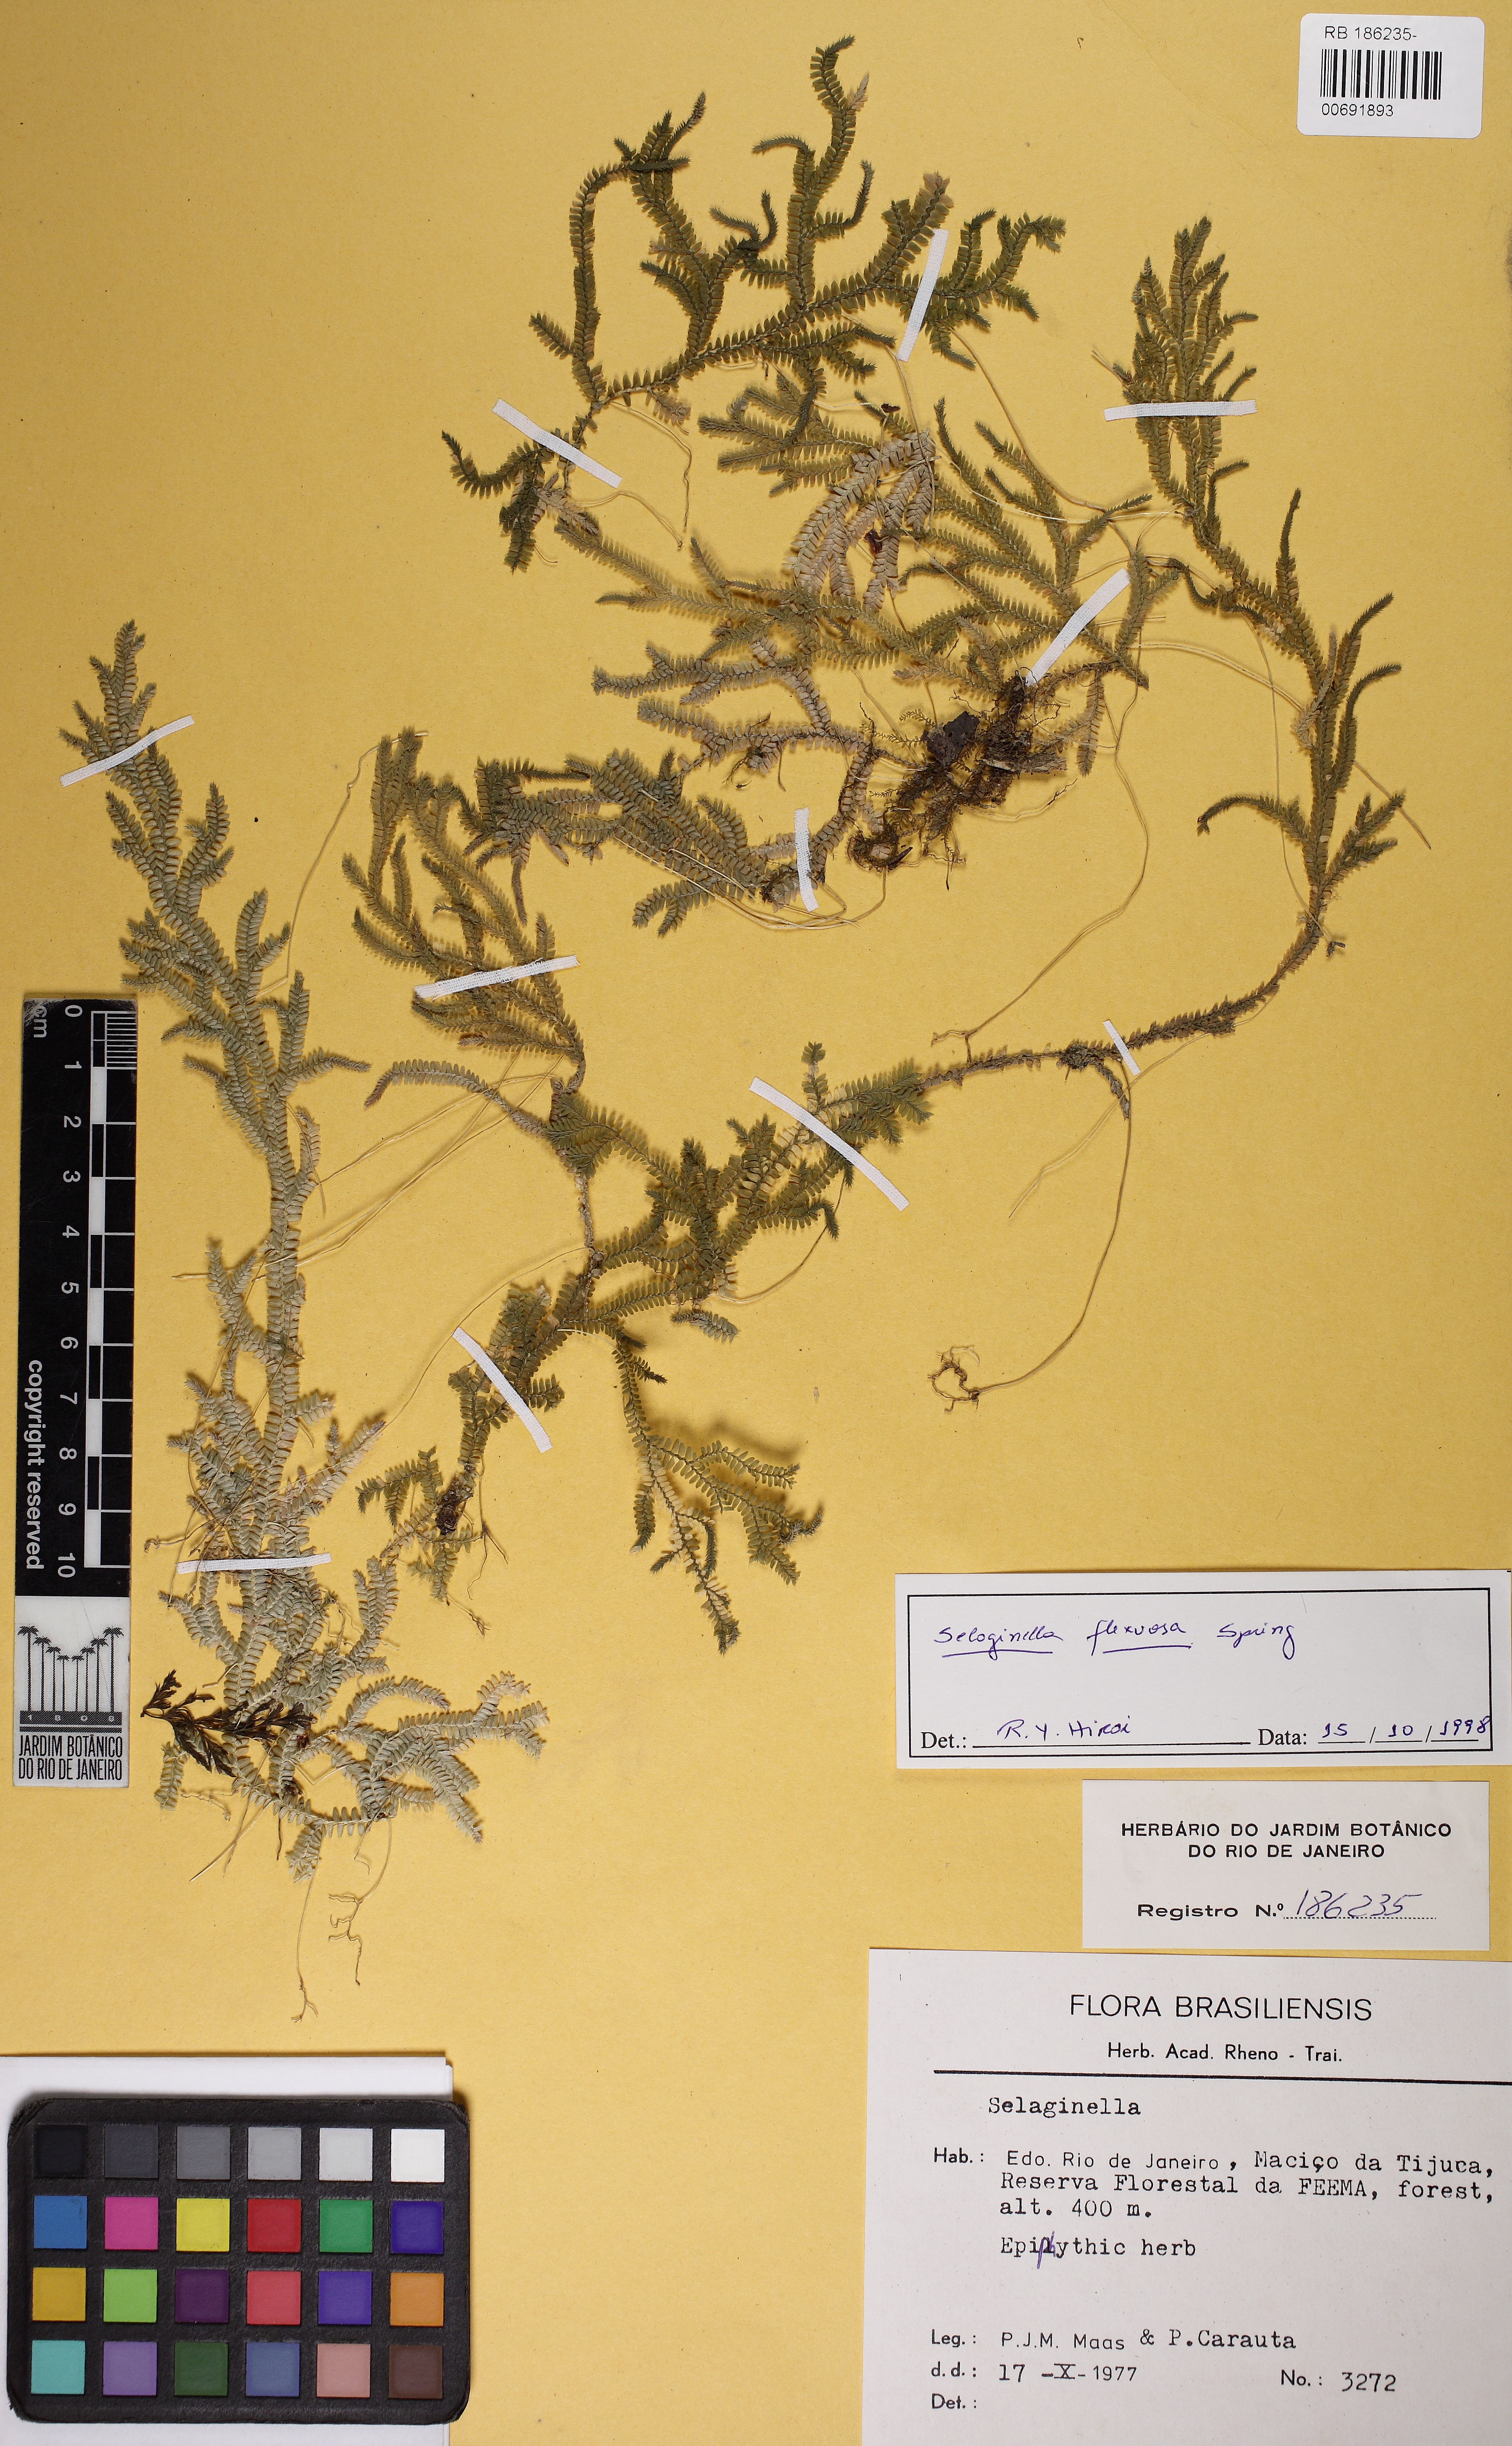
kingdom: Plantae
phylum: Tracheophyta
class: Lycopodiopsida
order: Selaginellales
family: Selaginellaceae
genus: Selaginella
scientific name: Selaginella flexuosa
